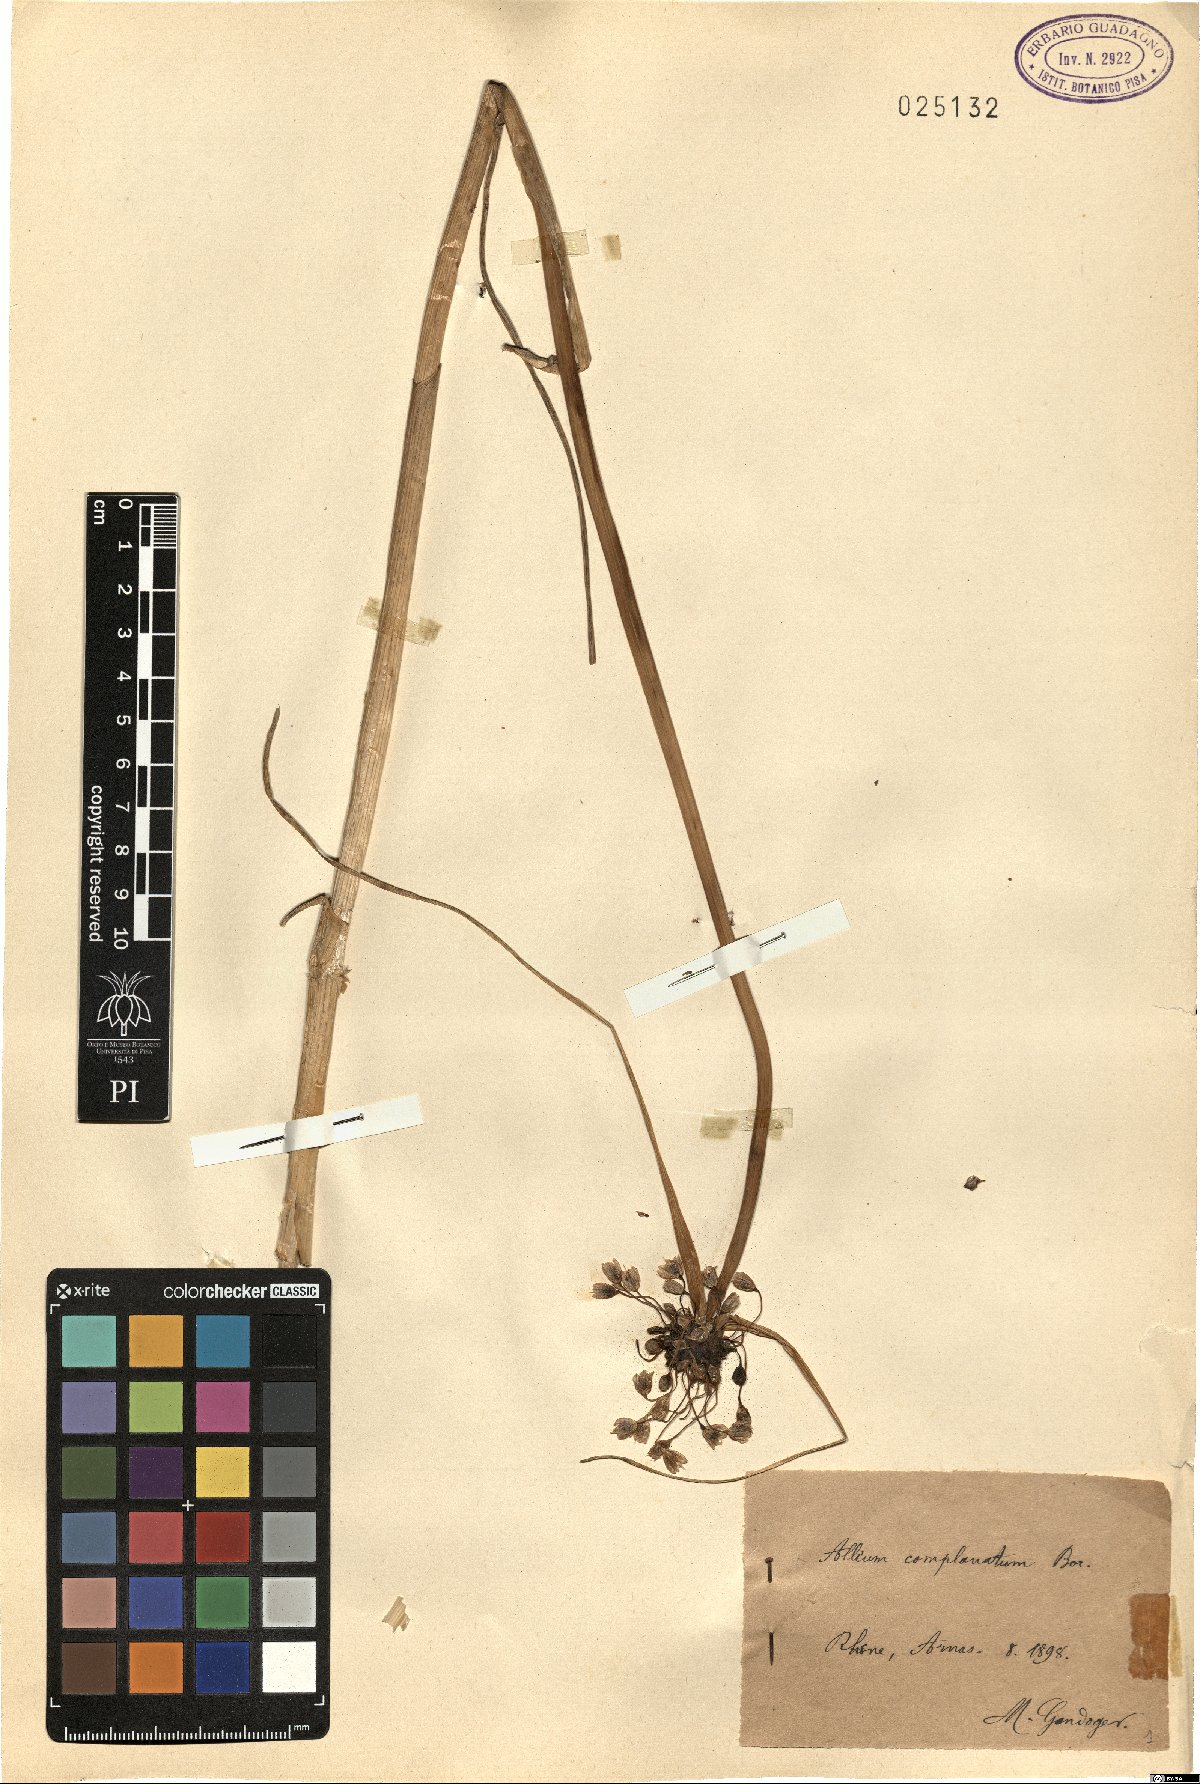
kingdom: Plantae
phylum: Tracheophyta
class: Liliopsida
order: Asparagales
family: Amaryllidaceae
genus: Allium
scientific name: Allium oleraceum
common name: Field garlic
